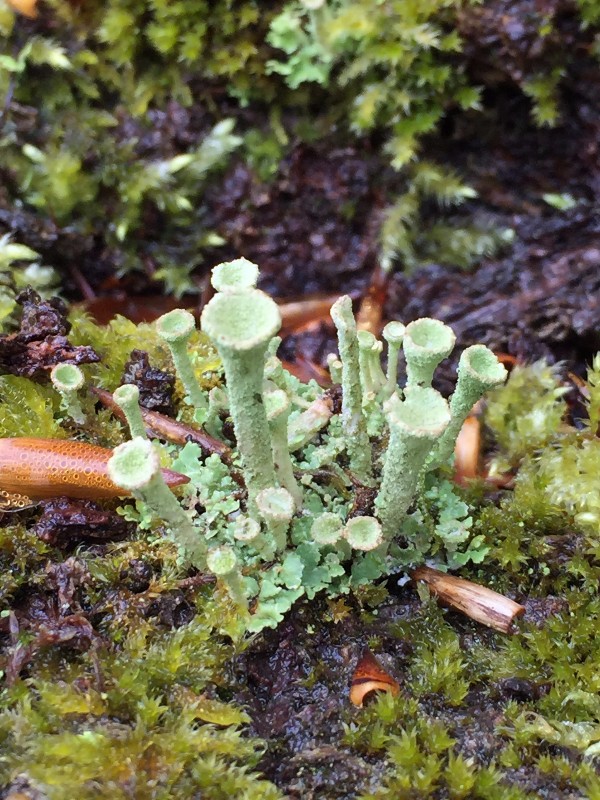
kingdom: Fungi
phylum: Ascomycota
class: Lecanoromycetes
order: Lecanorales
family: Cladoniaceae
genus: Cladonia
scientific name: Cladonia
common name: brungrøn bægerlav
